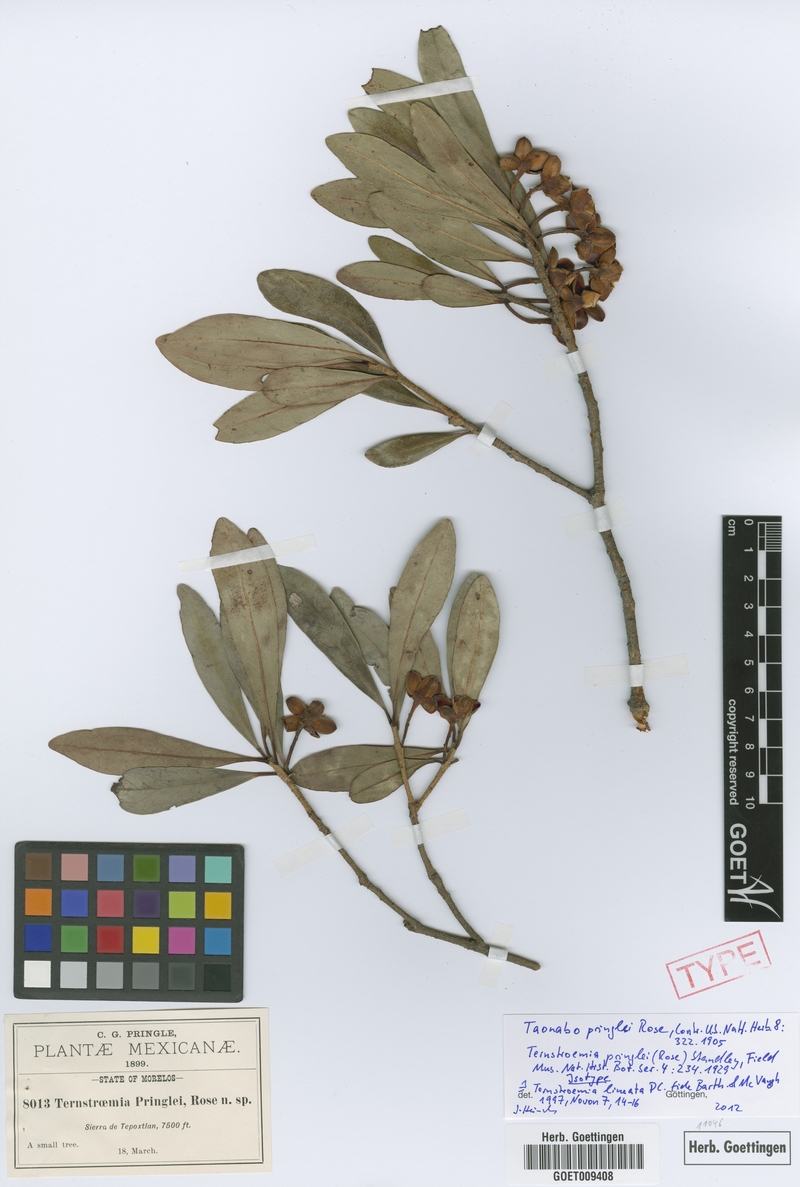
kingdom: Plantae
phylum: Tracheophyta
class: Magnoliopsida
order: Ericales
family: Pentaphylacaceae
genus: Ternstroemia
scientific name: Ternstroemia lineata
